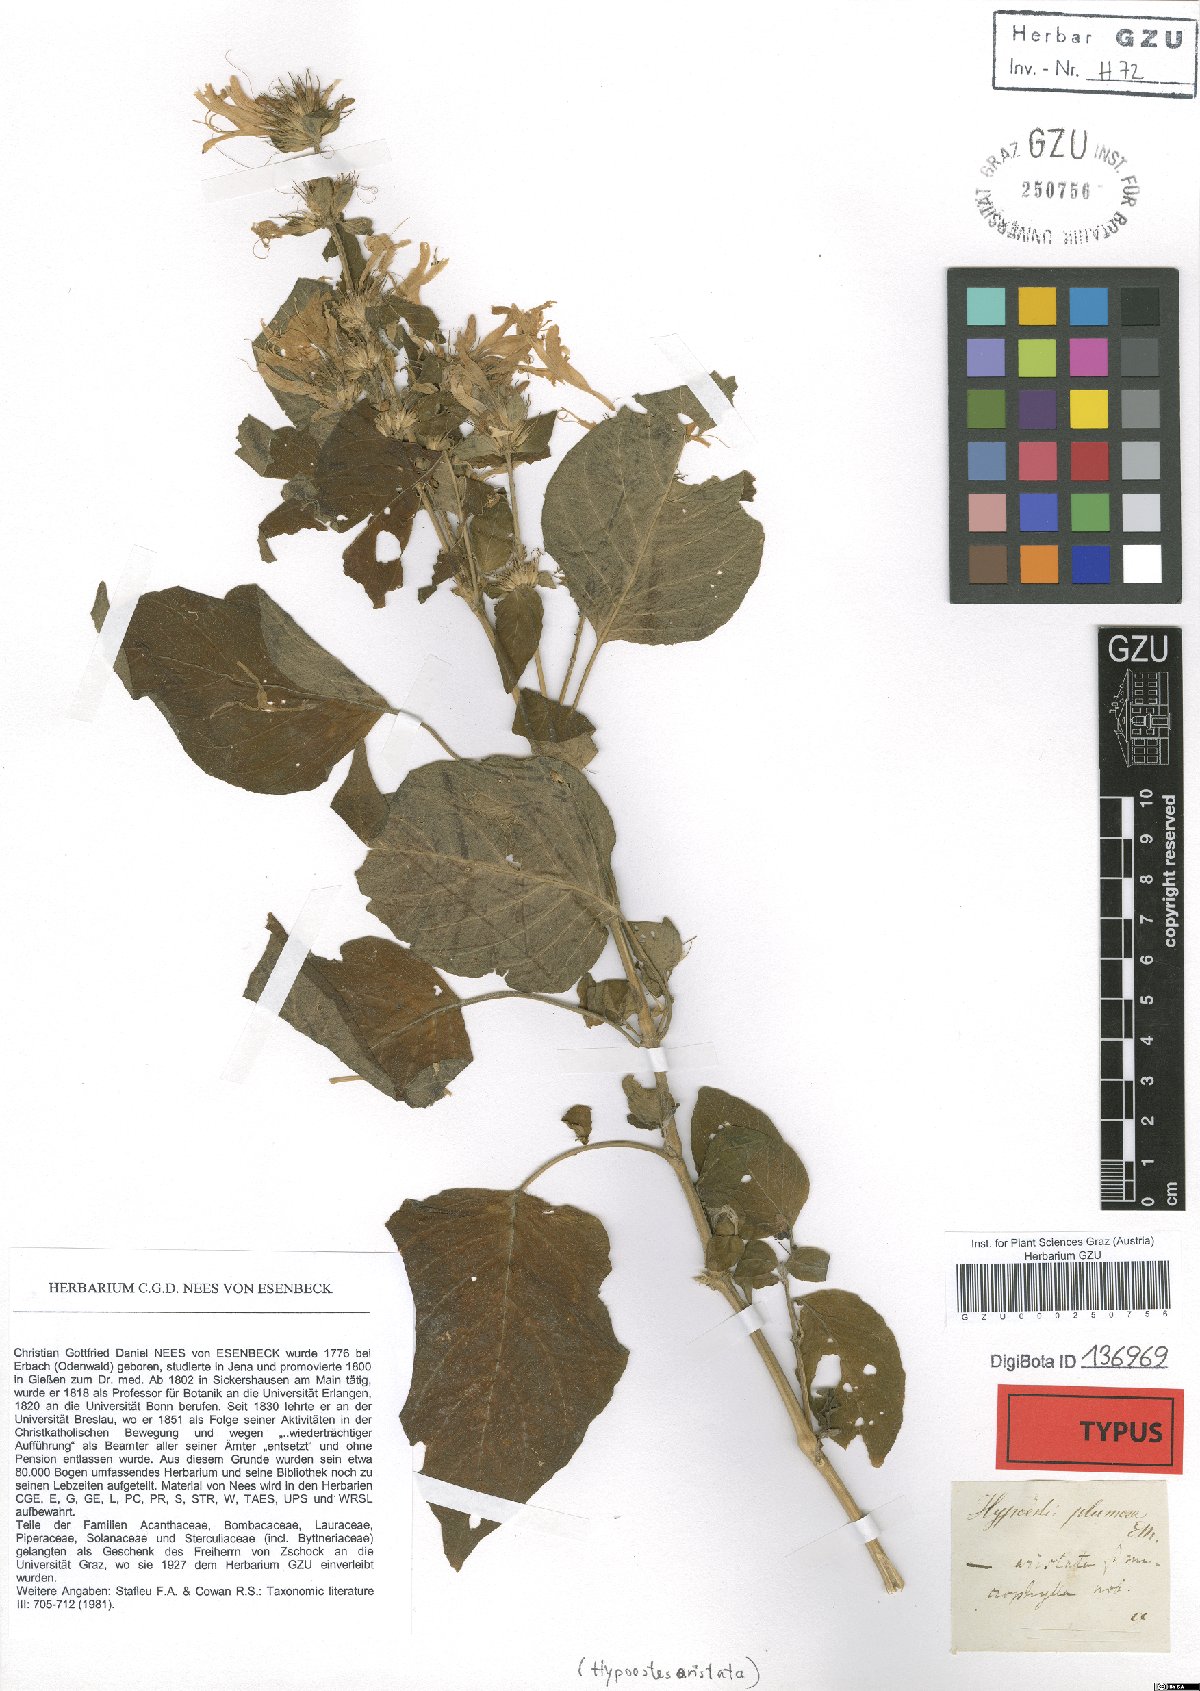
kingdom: Plantae
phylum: Tracheophyta
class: Magnoliopsida
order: Lamiales
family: Acanthaceae
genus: Hypoestes
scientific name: Hypoestes aristata
